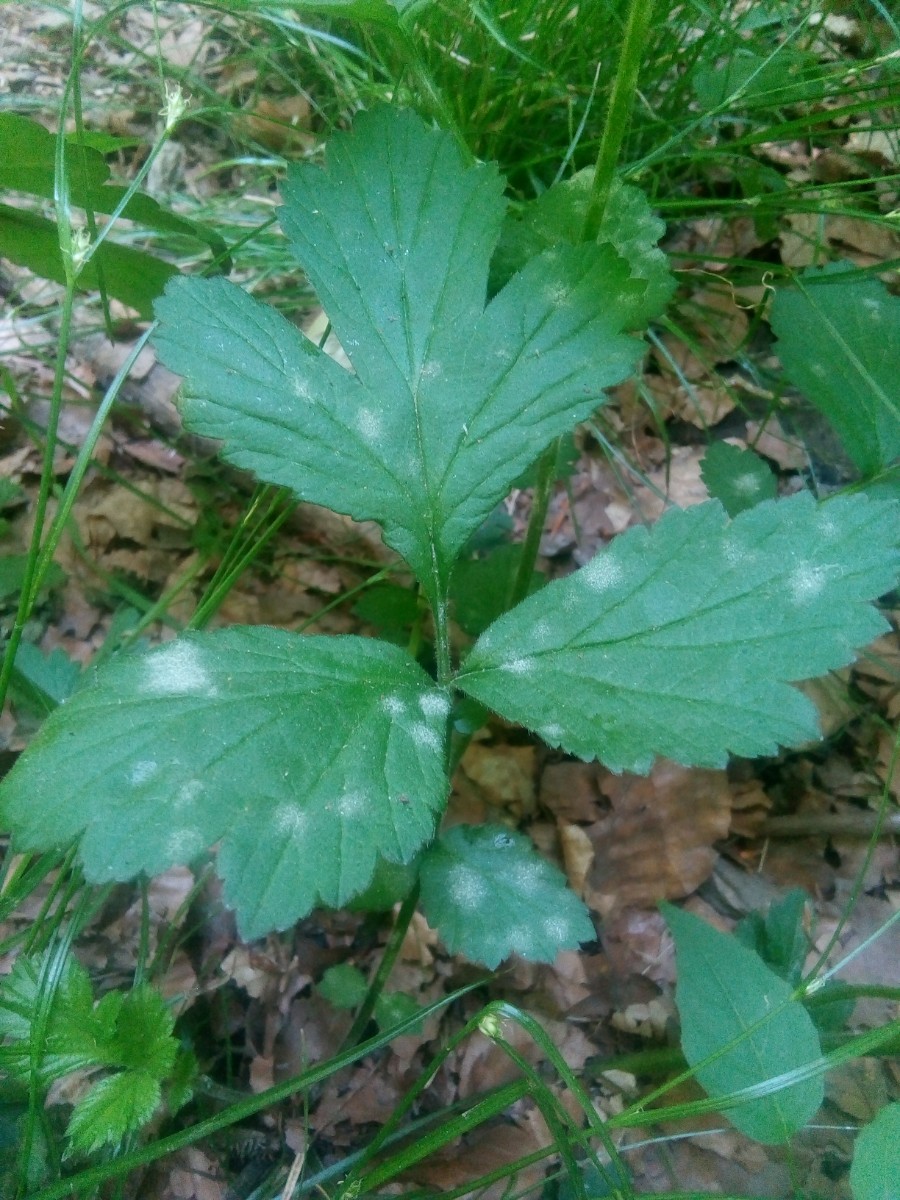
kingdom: Fungi
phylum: Ascomycota
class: Leotiomycetes
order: Helotiales
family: Erysiphaceae
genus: Podosphaera
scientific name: Podosphaera aphanis
